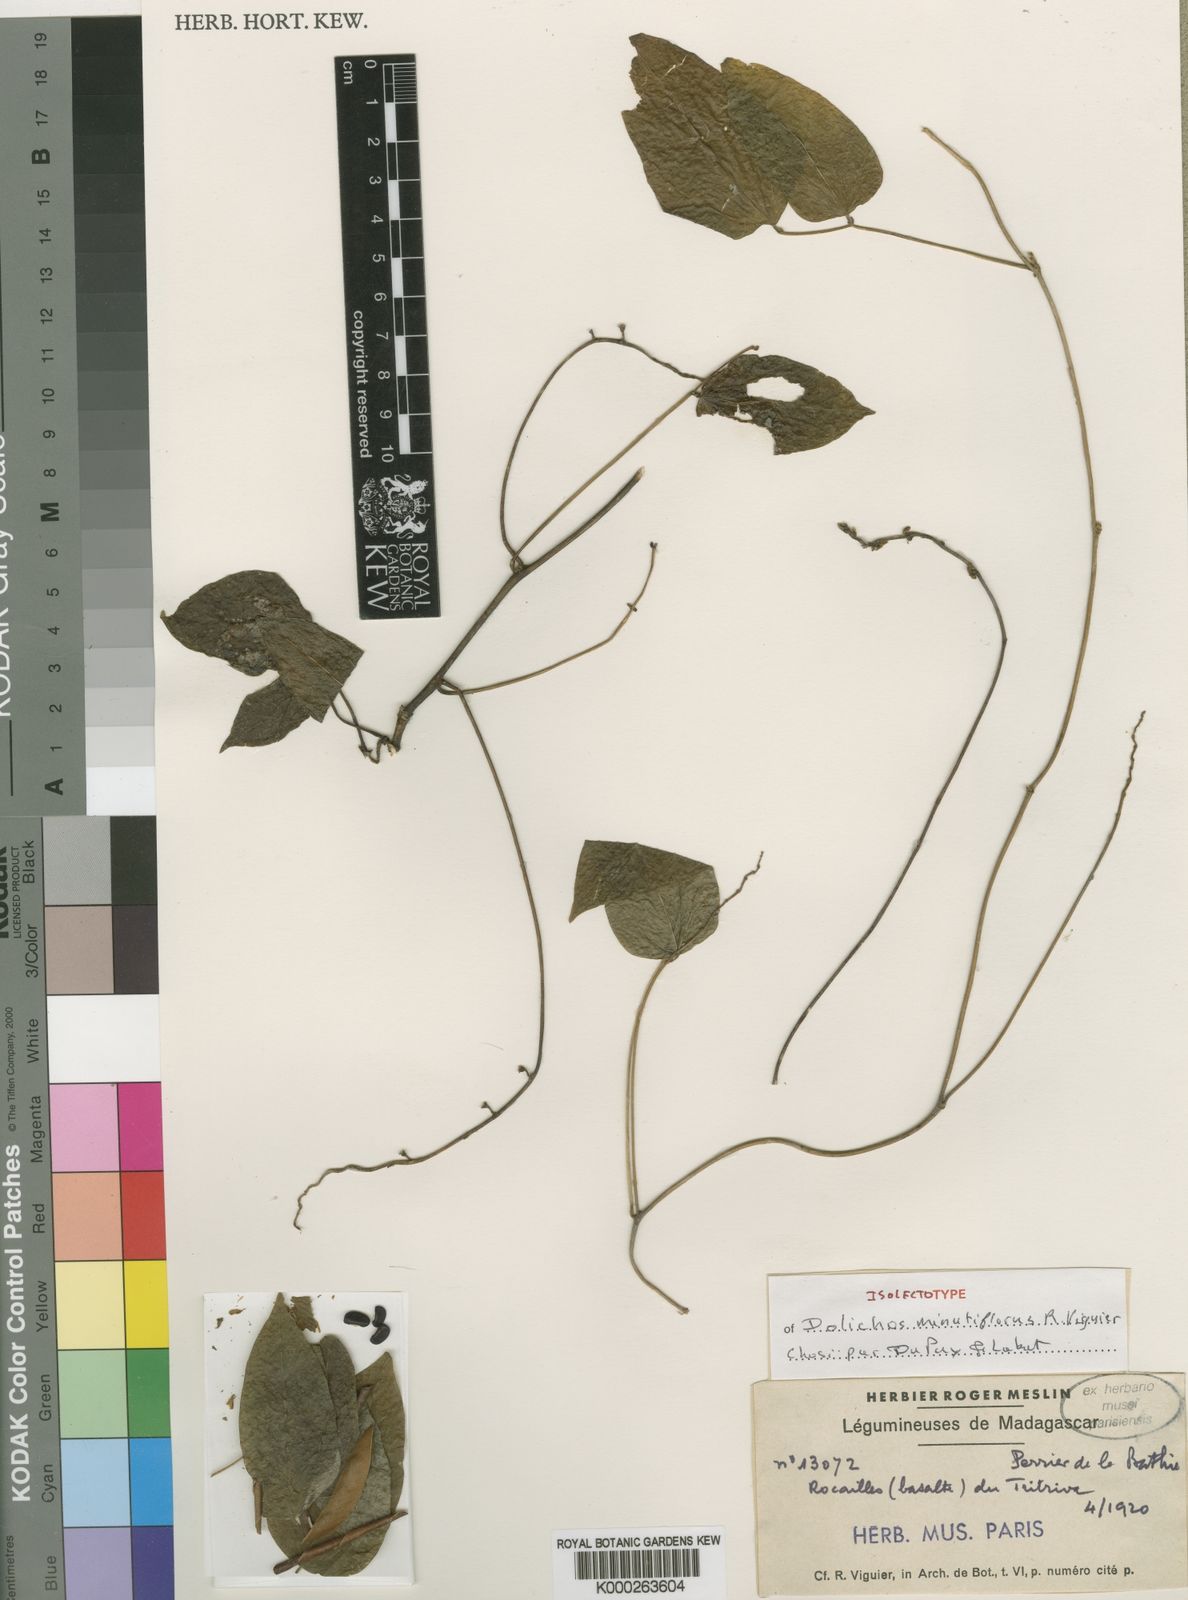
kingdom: Plantae
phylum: Tracheophyta
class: Magnoliopsida
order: Fabales
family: Fabaceae
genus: Dolichos
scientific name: Dolichos minutiflorus
